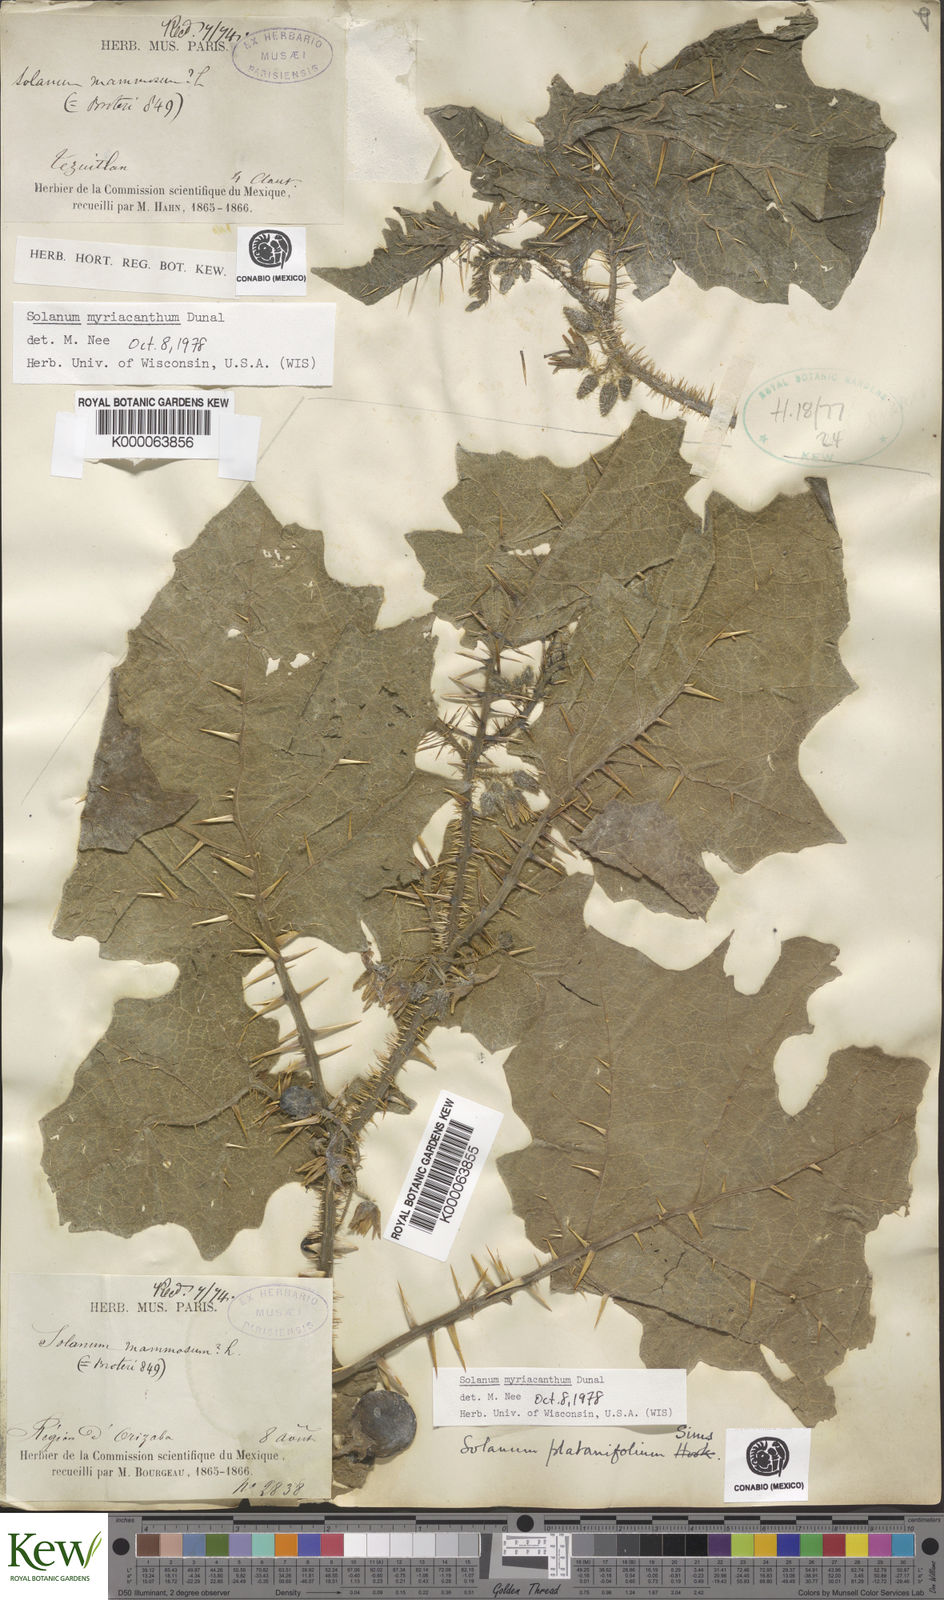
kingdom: Plantae
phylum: Tracheophyta
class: Magnoliopsida
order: Solanales
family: Solanaceae
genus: Solanum
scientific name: Solanum myriacanthum
